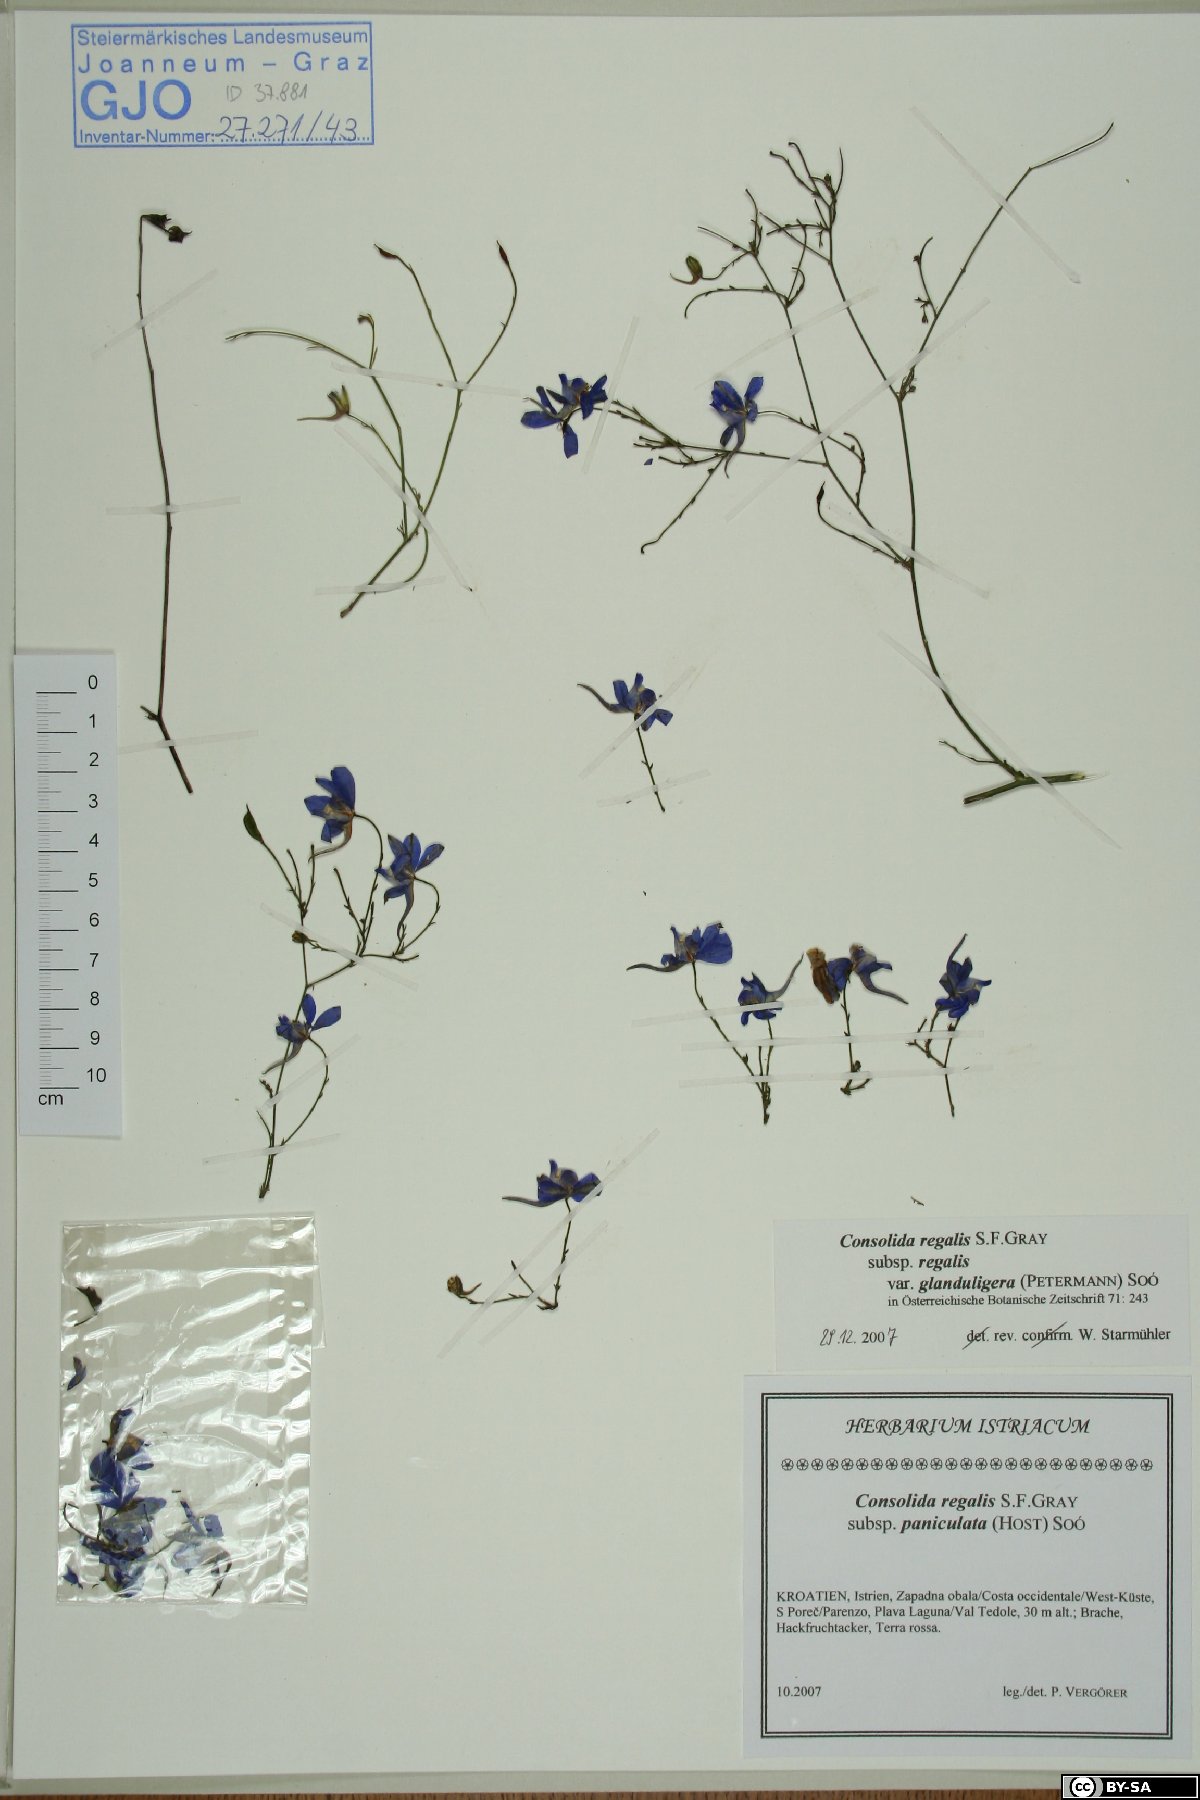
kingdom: Plantae
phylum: Tracheophyta
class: Magnoliopsida
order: Ranunculales
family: Ranunculaceae
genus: Delphinium
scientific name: Delphinium consolida
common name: Branching larkspur
